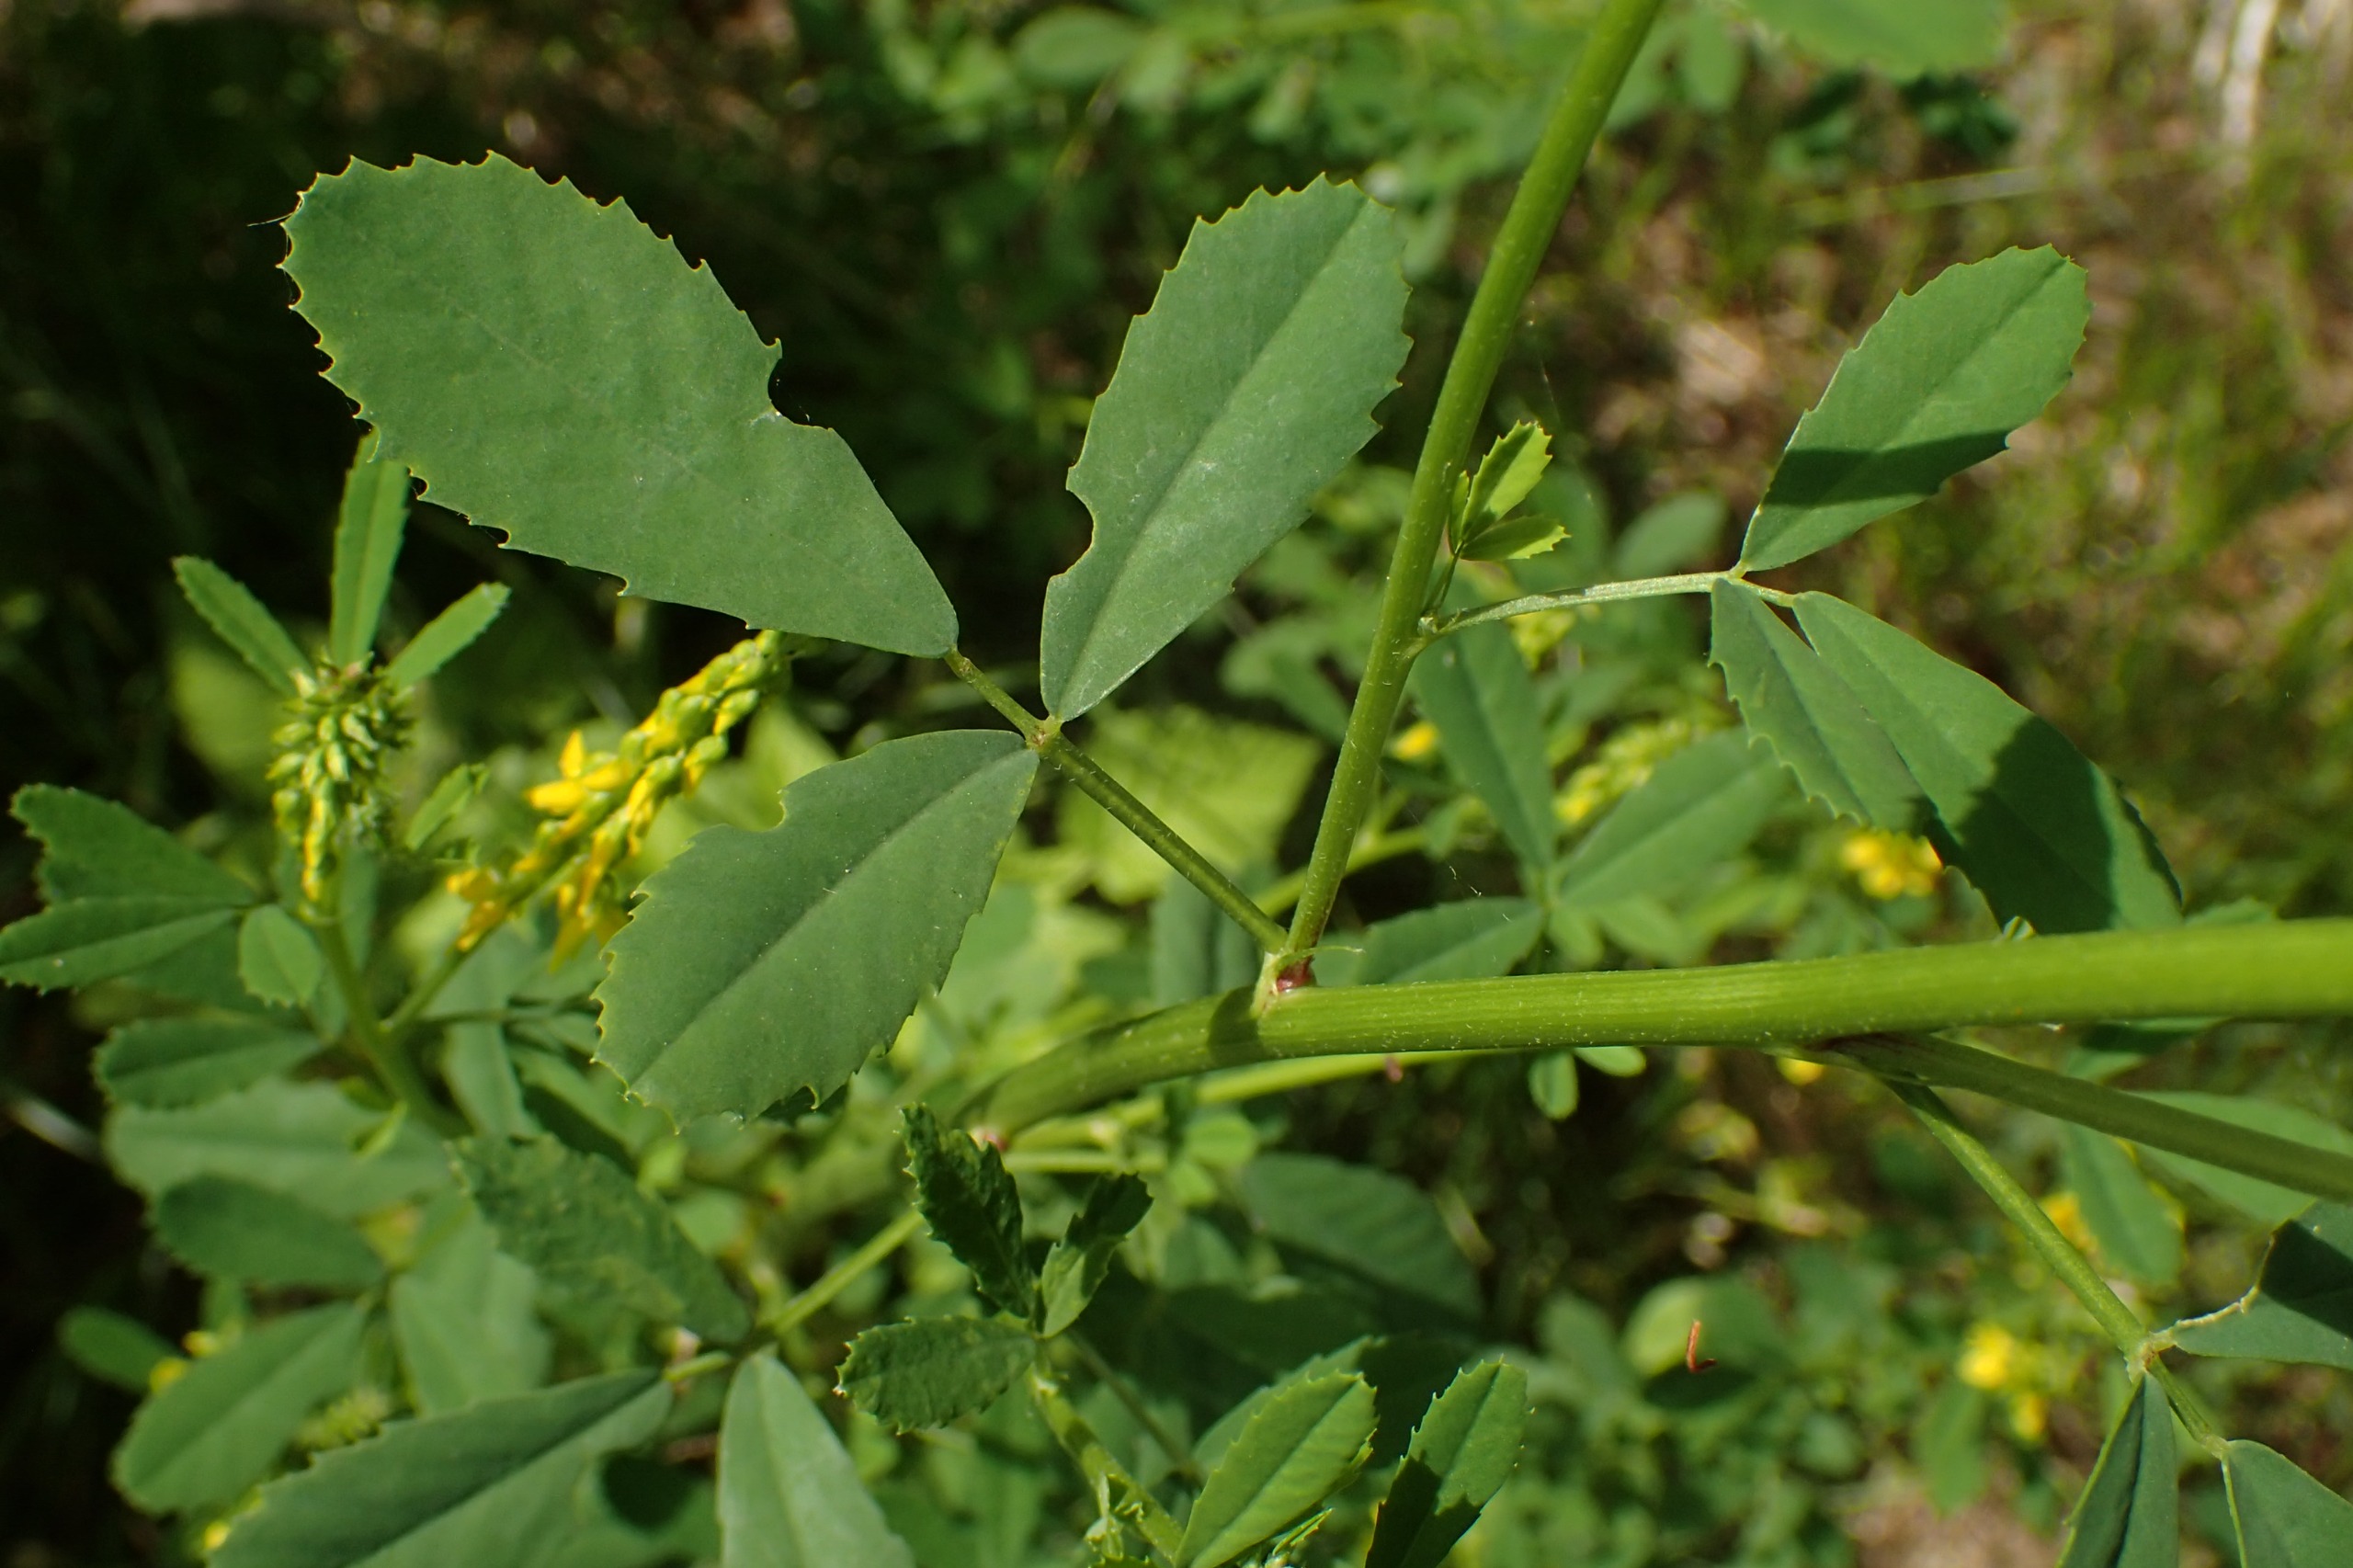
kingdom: Plantae
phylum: Tracheophyta
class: Magnoliopsida
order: Fabales
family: Fabaceae
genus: Melilotus
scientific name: Melilotus altissimus
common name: Høj stenkløver
